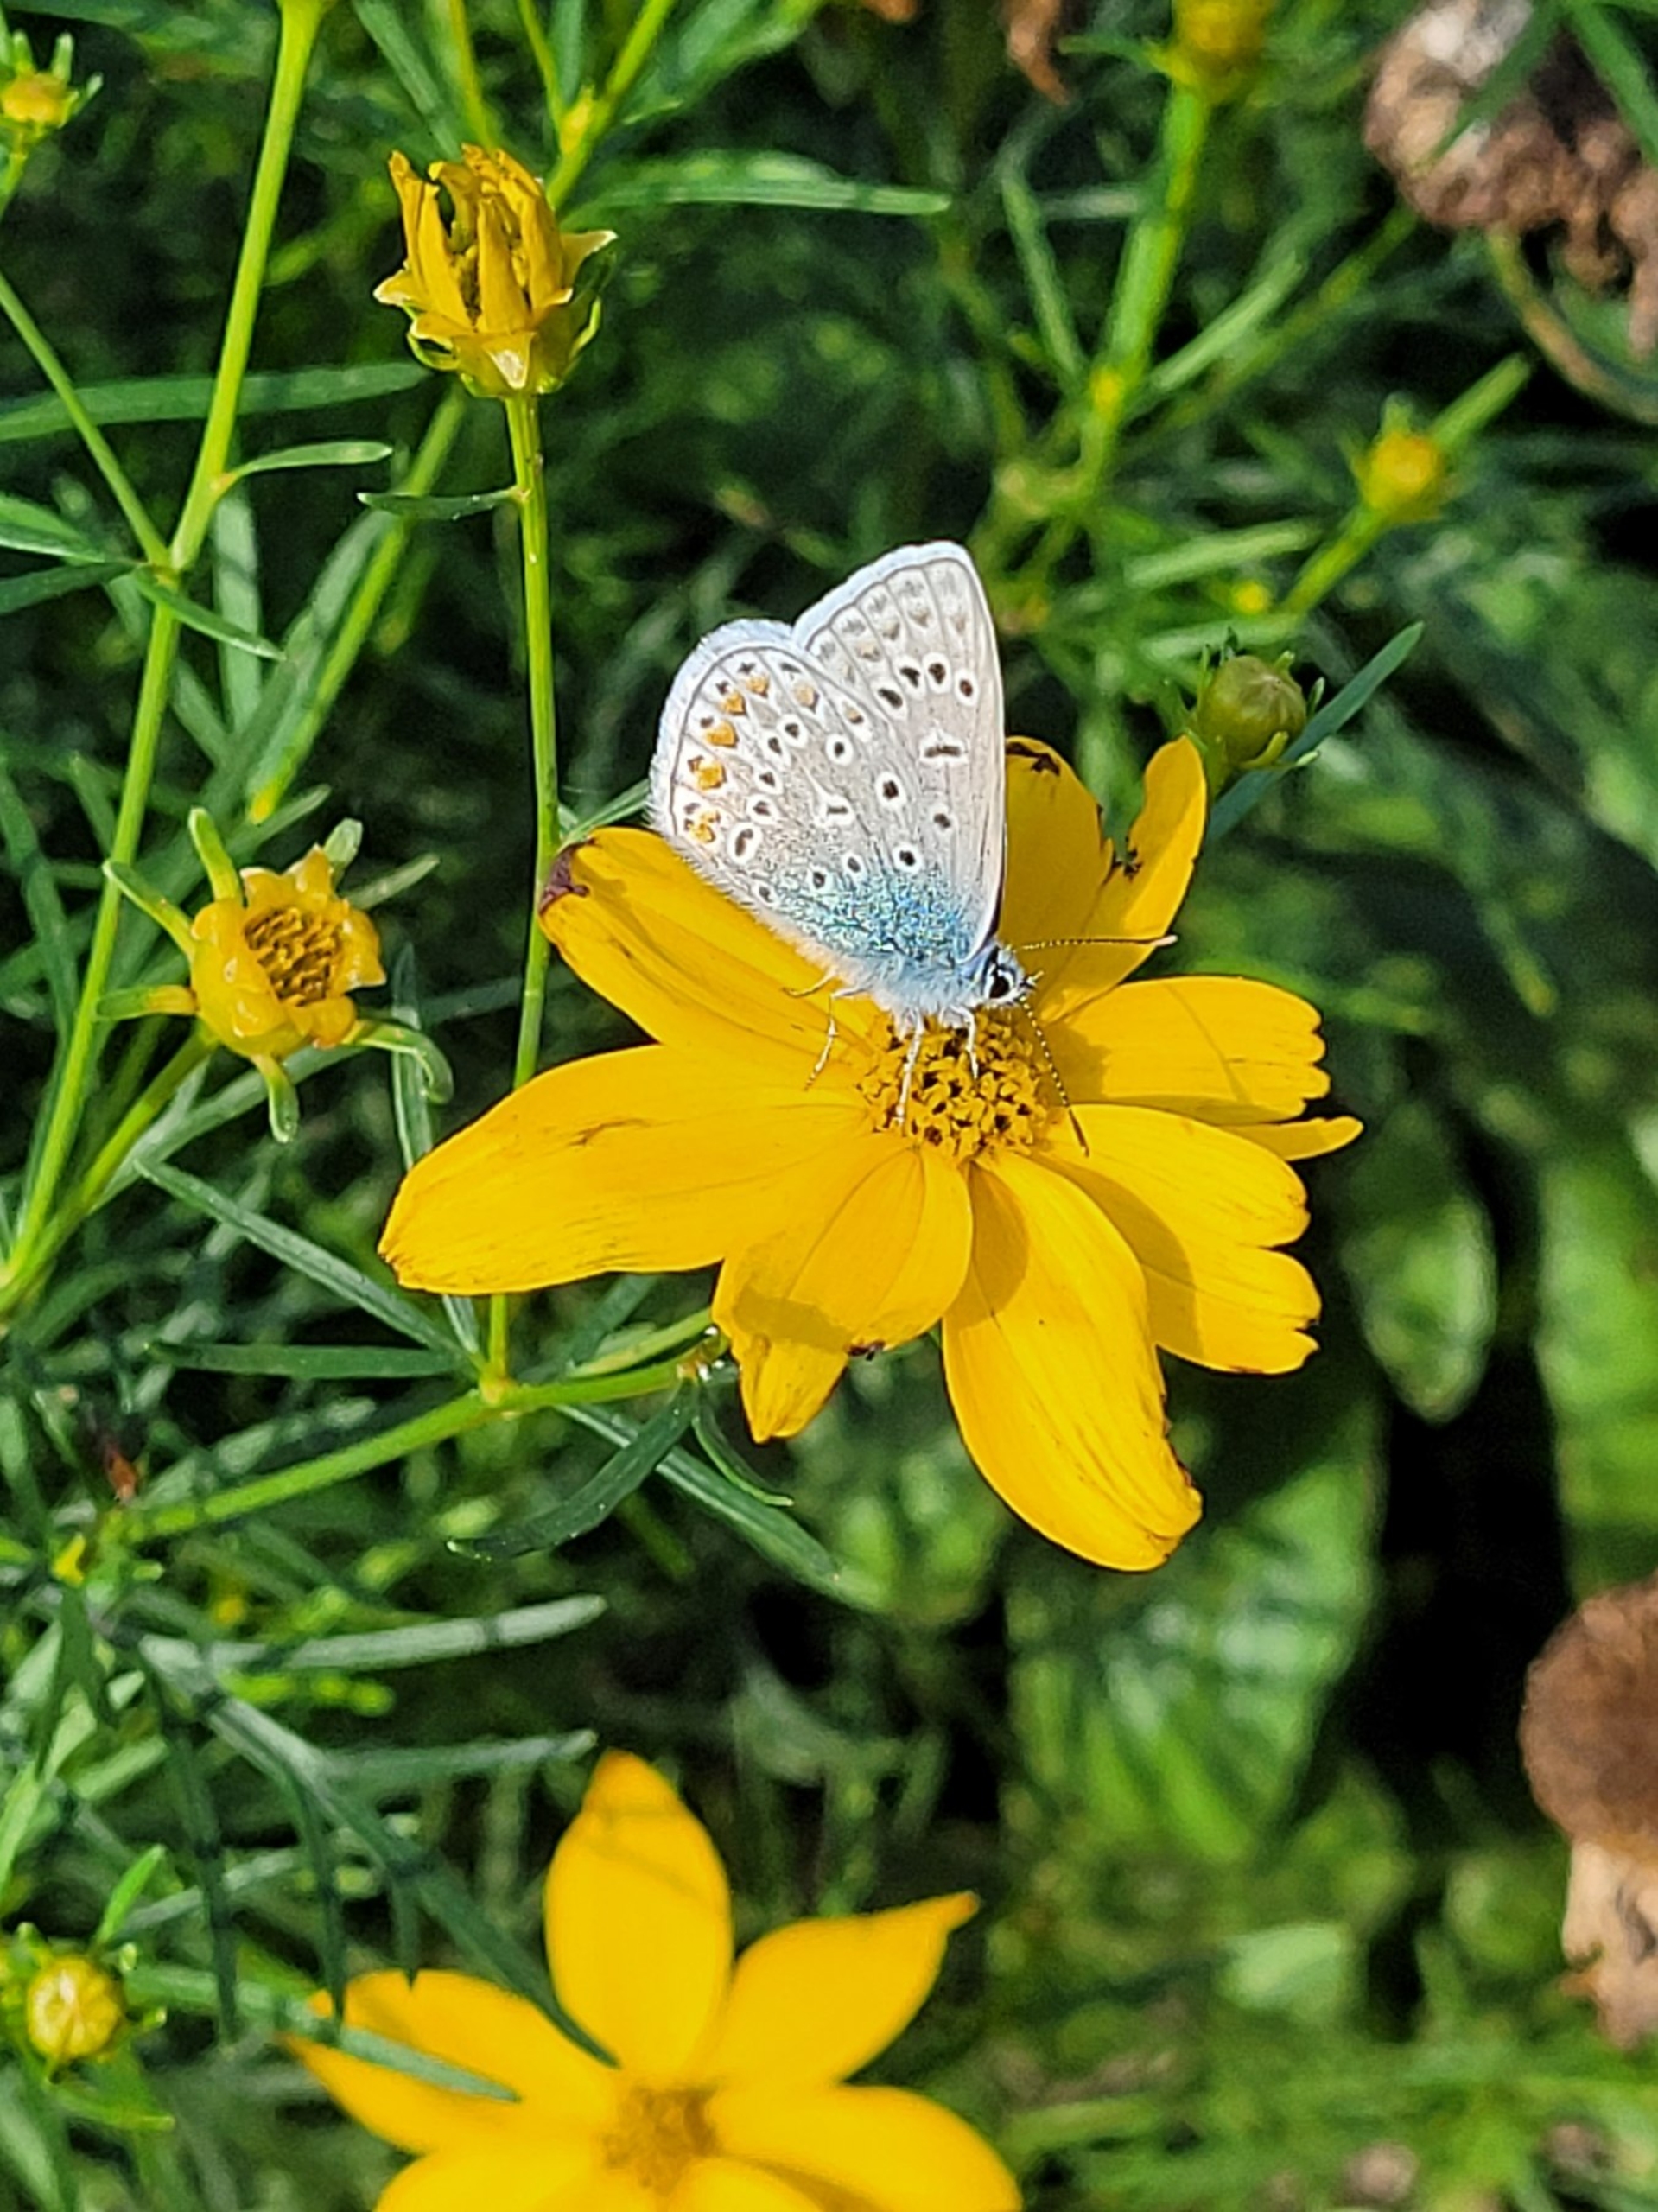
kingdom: Animalia
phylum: Arthropoda
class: Insecta
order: Lepidoptera
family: Lycaenidae
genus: Polyommatus
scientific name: Polyommatus icarus
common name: Almindelig blåfugl
